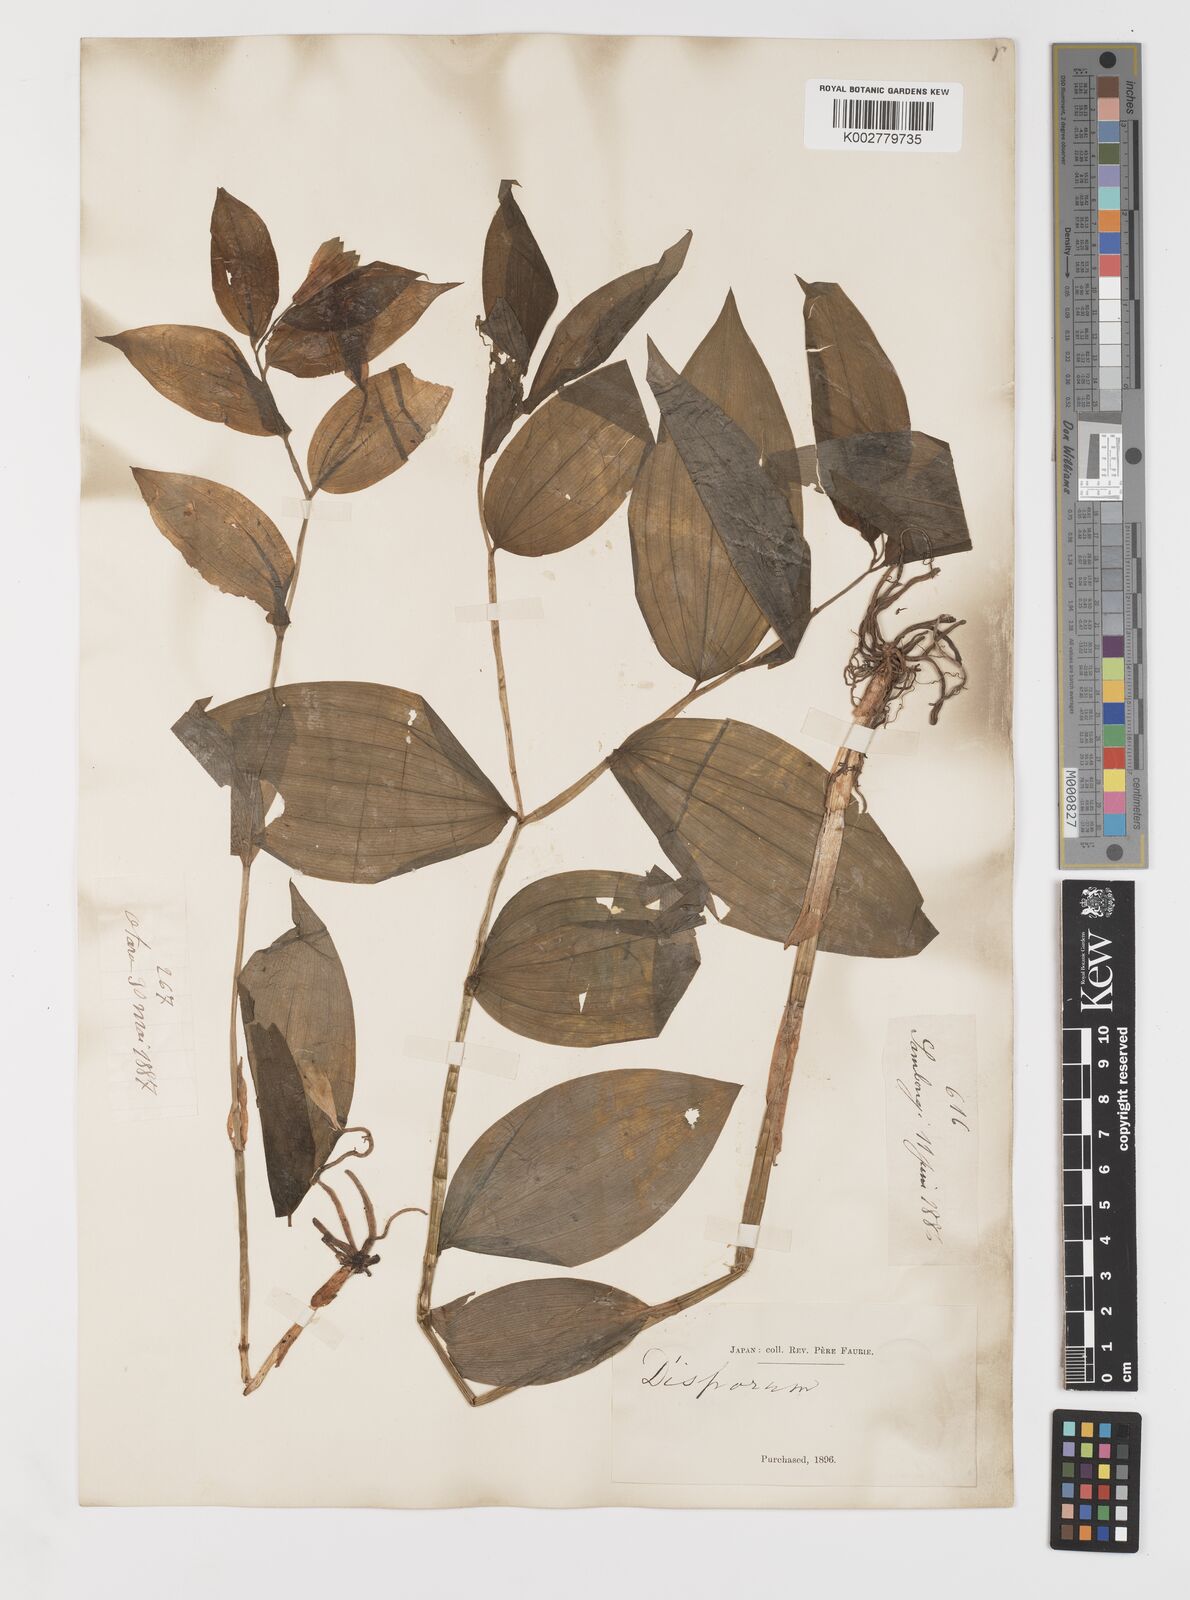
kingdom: Plantae
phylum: Tracheophyta
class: Liliopsida
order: Liliales
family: Colchicaceae
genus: Disporum
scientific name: Disporum sessile
